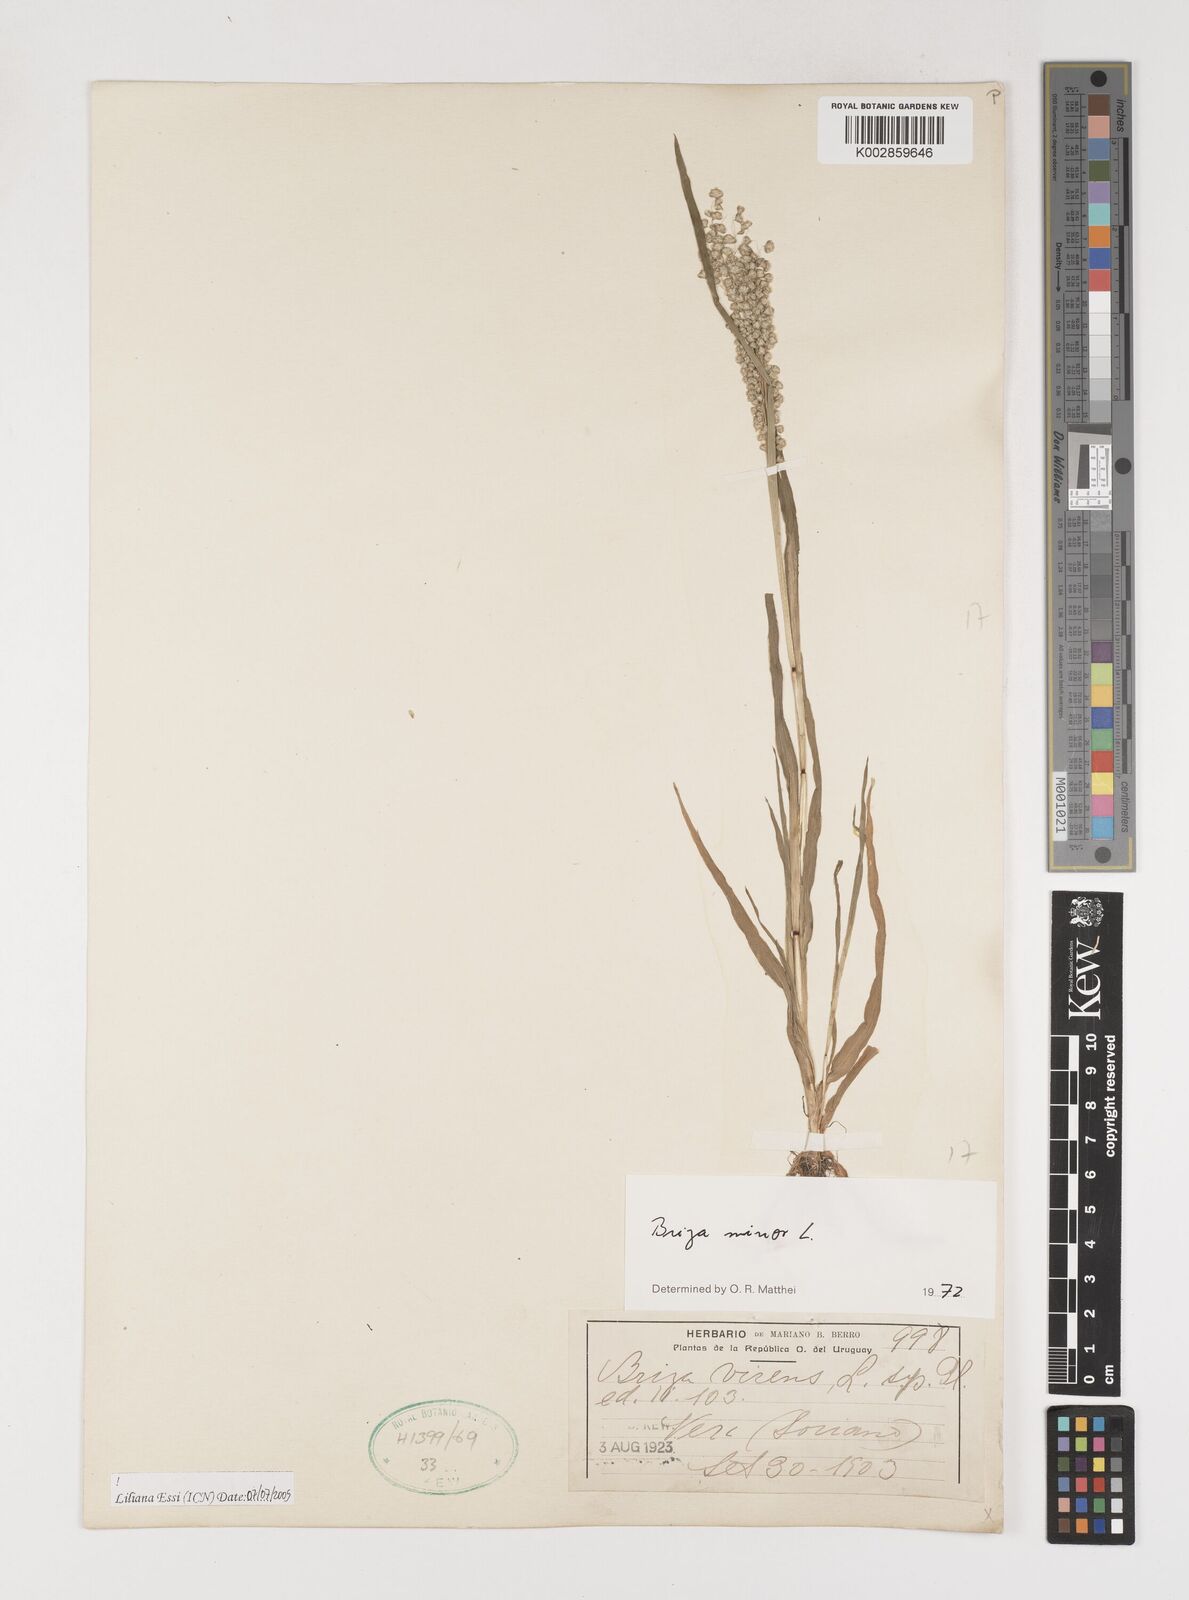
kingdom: Plantae
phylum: Tracheophyta
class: Liliopsida
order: Poales
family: Poaceae
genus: Briza
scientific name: Briza minor
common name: Lesser quaking-grass
